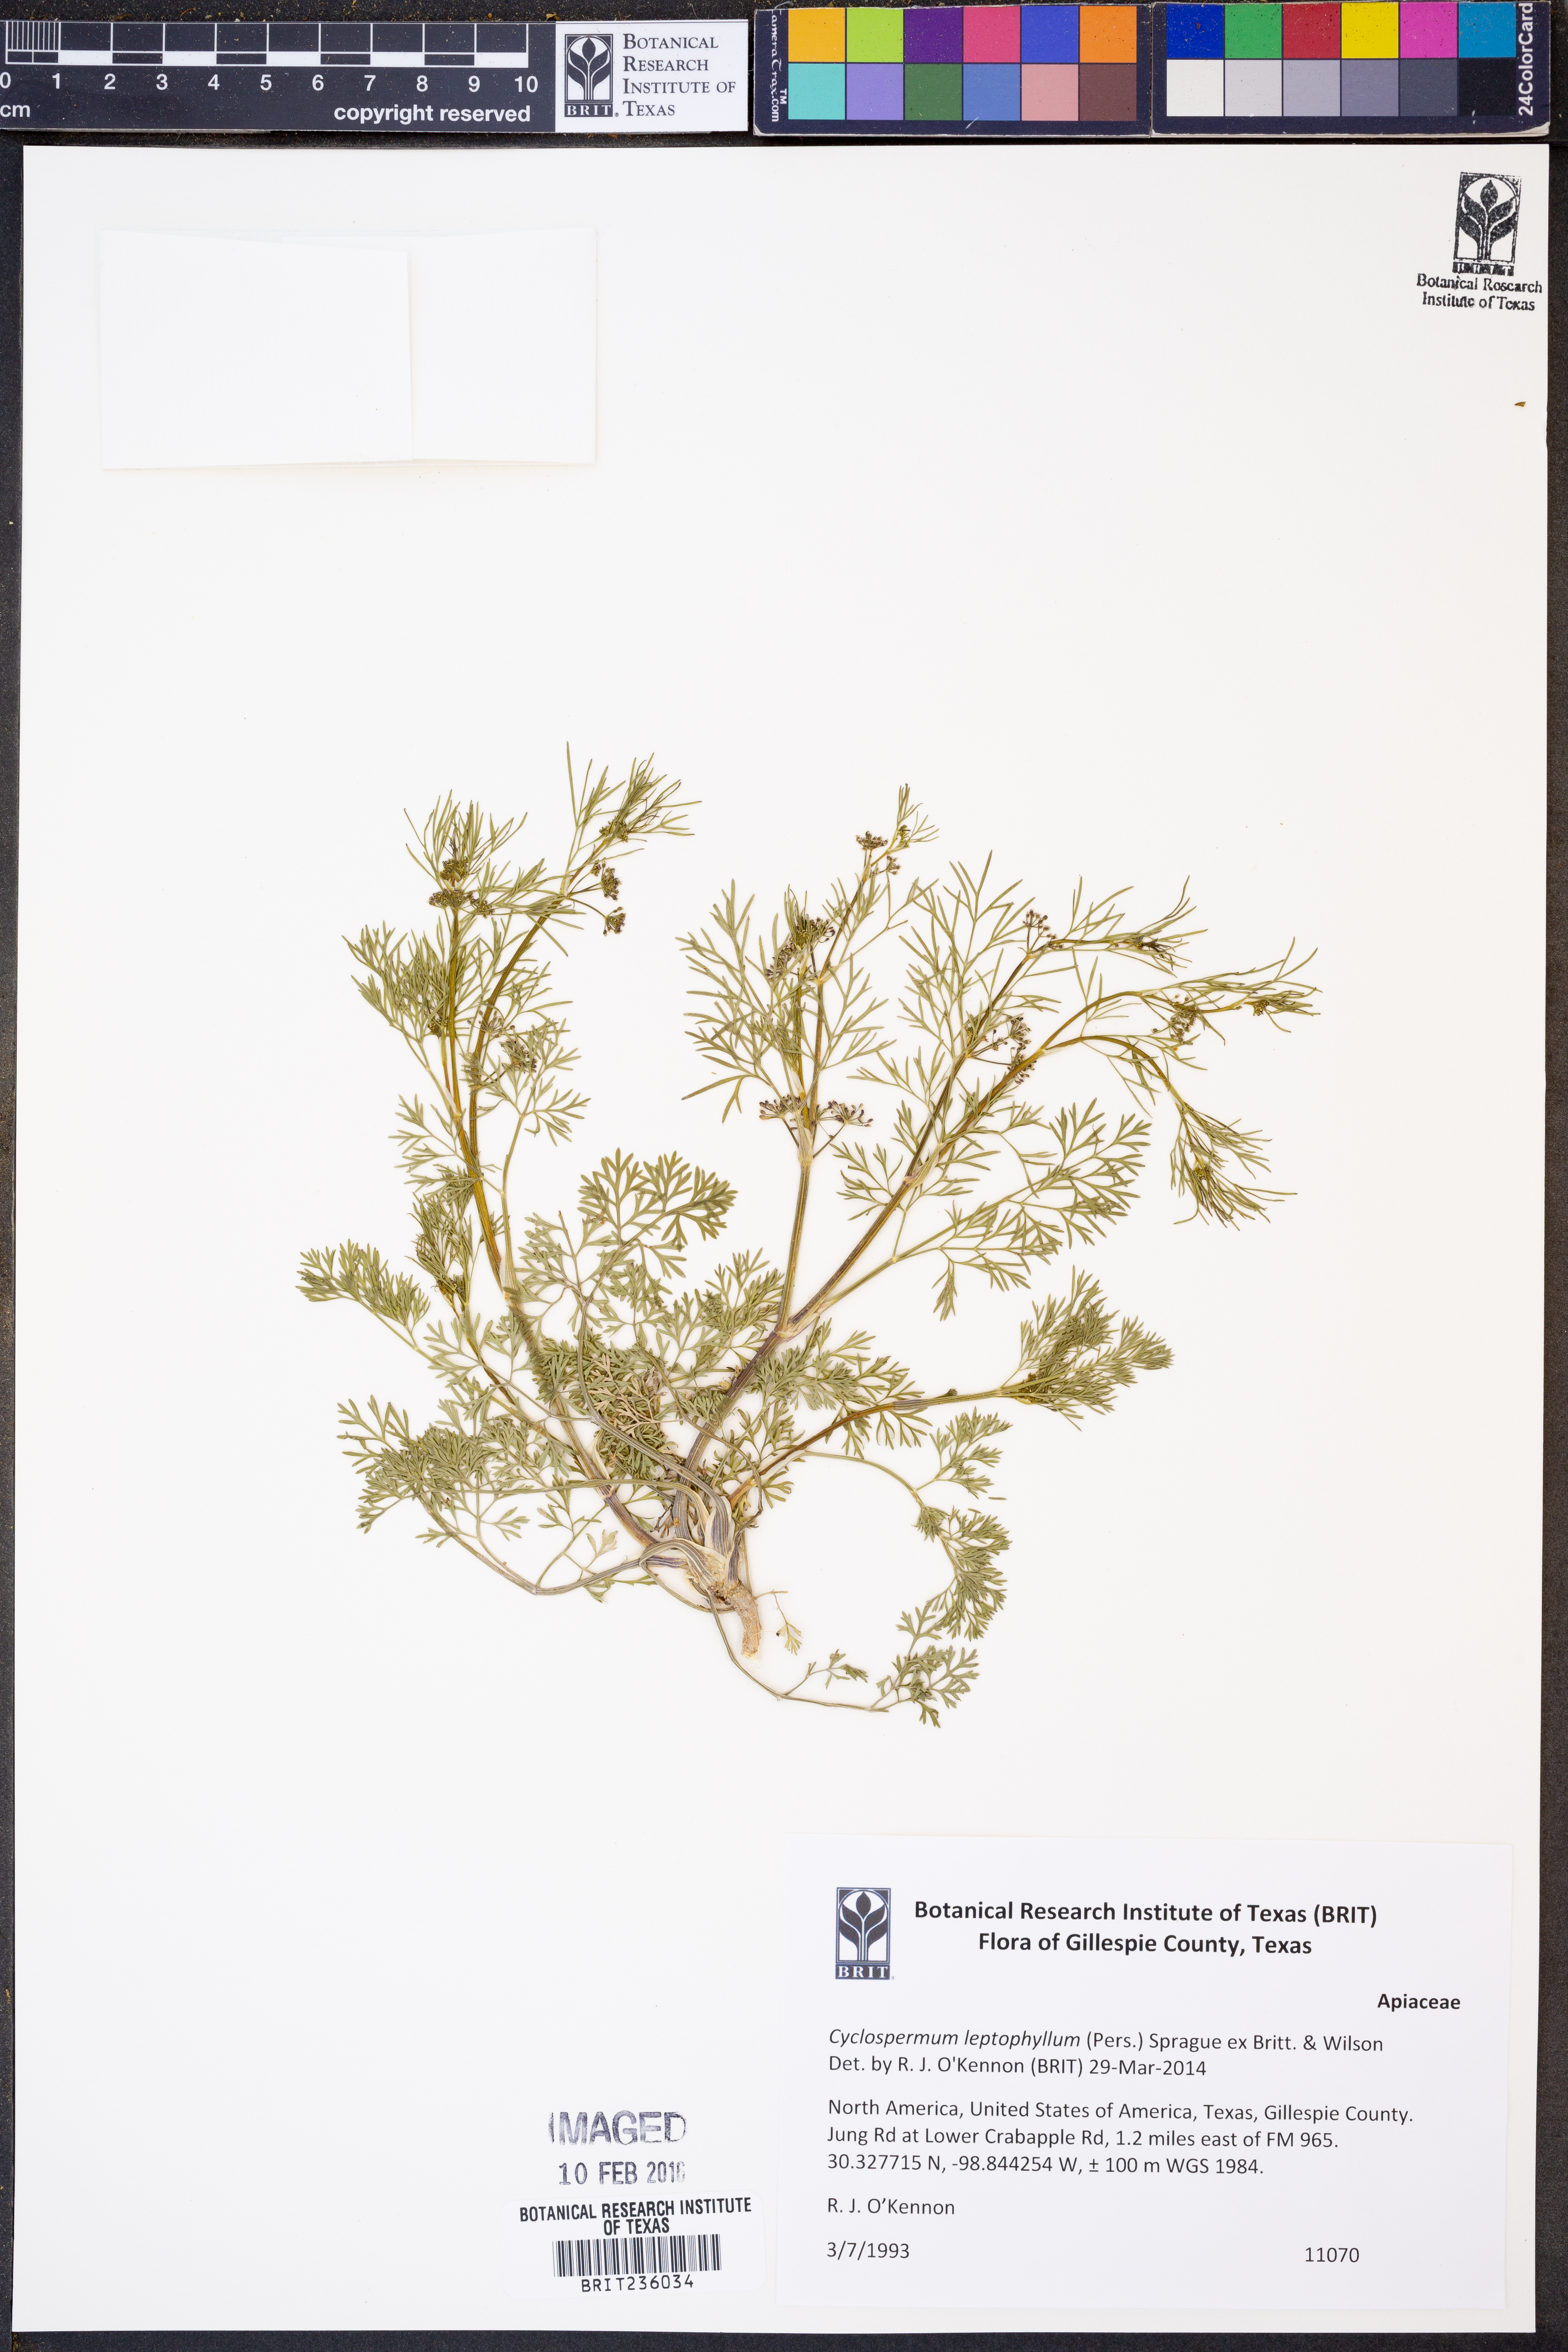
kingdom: Plantae
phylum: Tracheophyta
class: Magnoliopsida
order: Apiales
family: Apiaceae
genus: Cyclospermum
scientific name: Cyclospermum leptophyllum
